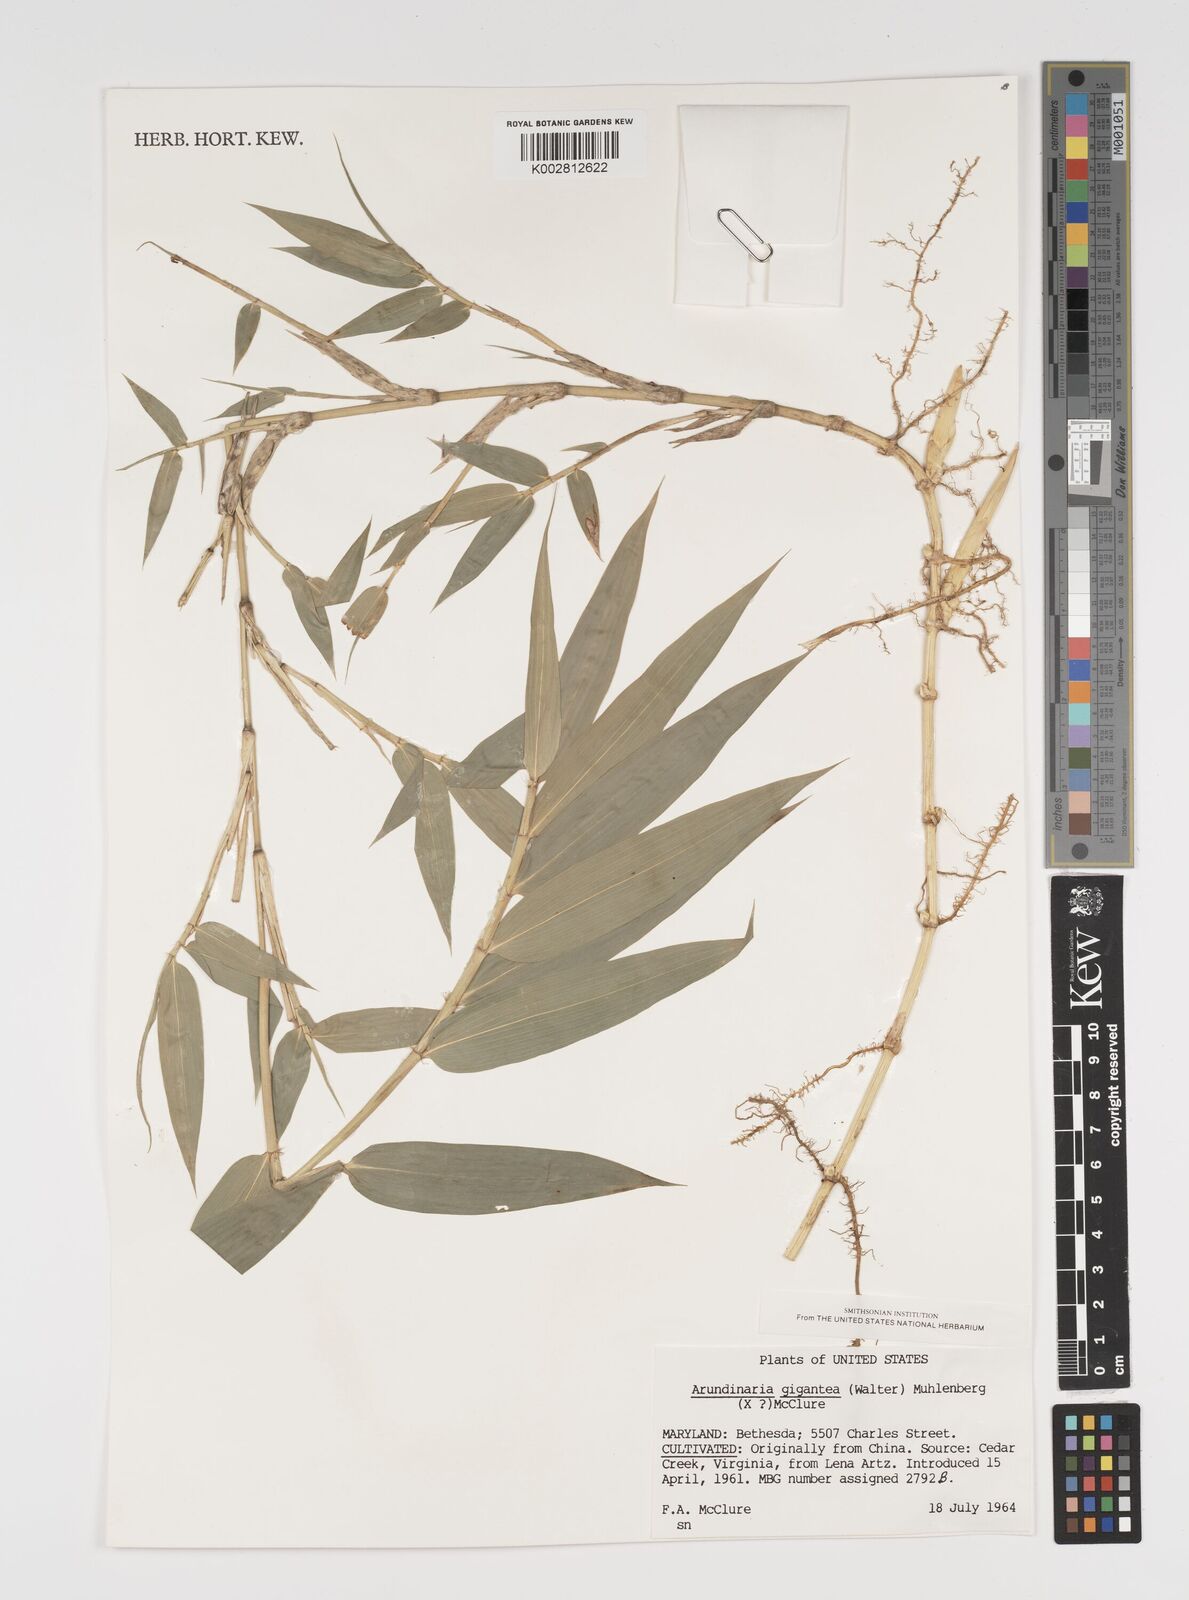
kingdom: Plantae
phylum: Tracheophyta
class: Liliopsida
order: Poales
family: Poaceae
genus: Arundinaria
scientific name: Arundinaria
